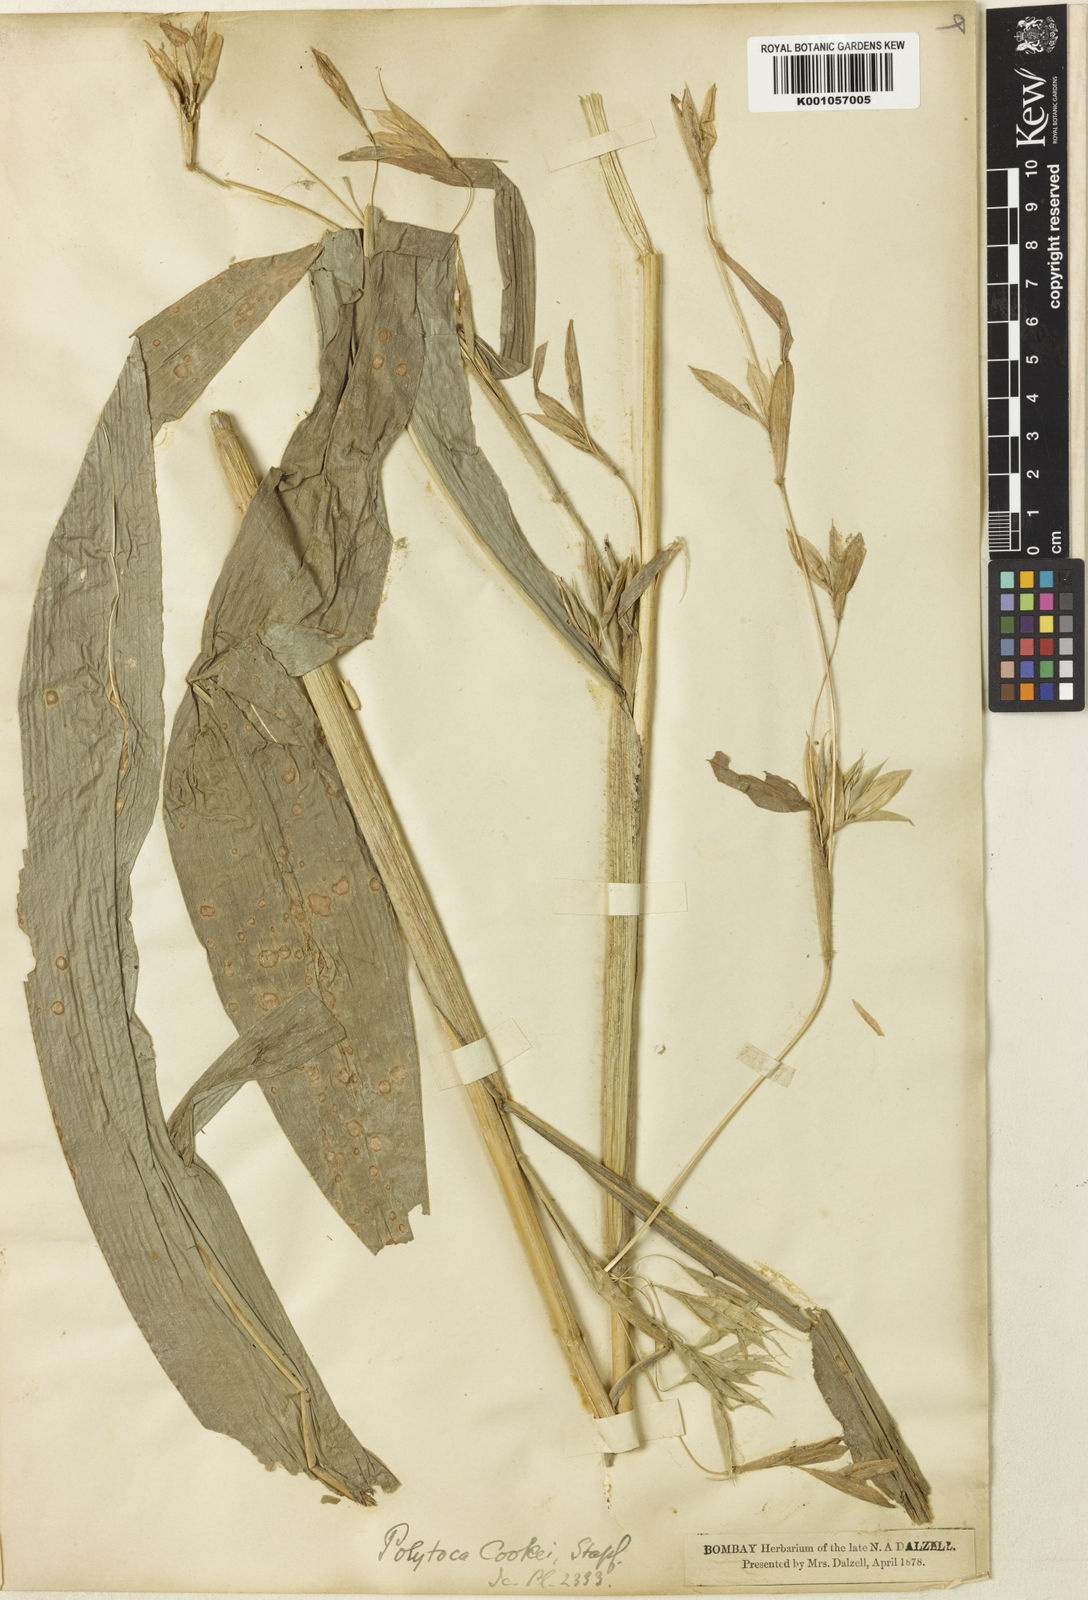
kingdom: Plantae
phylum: Tracheophyta
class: Liliopsida
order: Poales
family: Poaceae
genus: Trilobachne
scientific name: Trilobachne cookei
